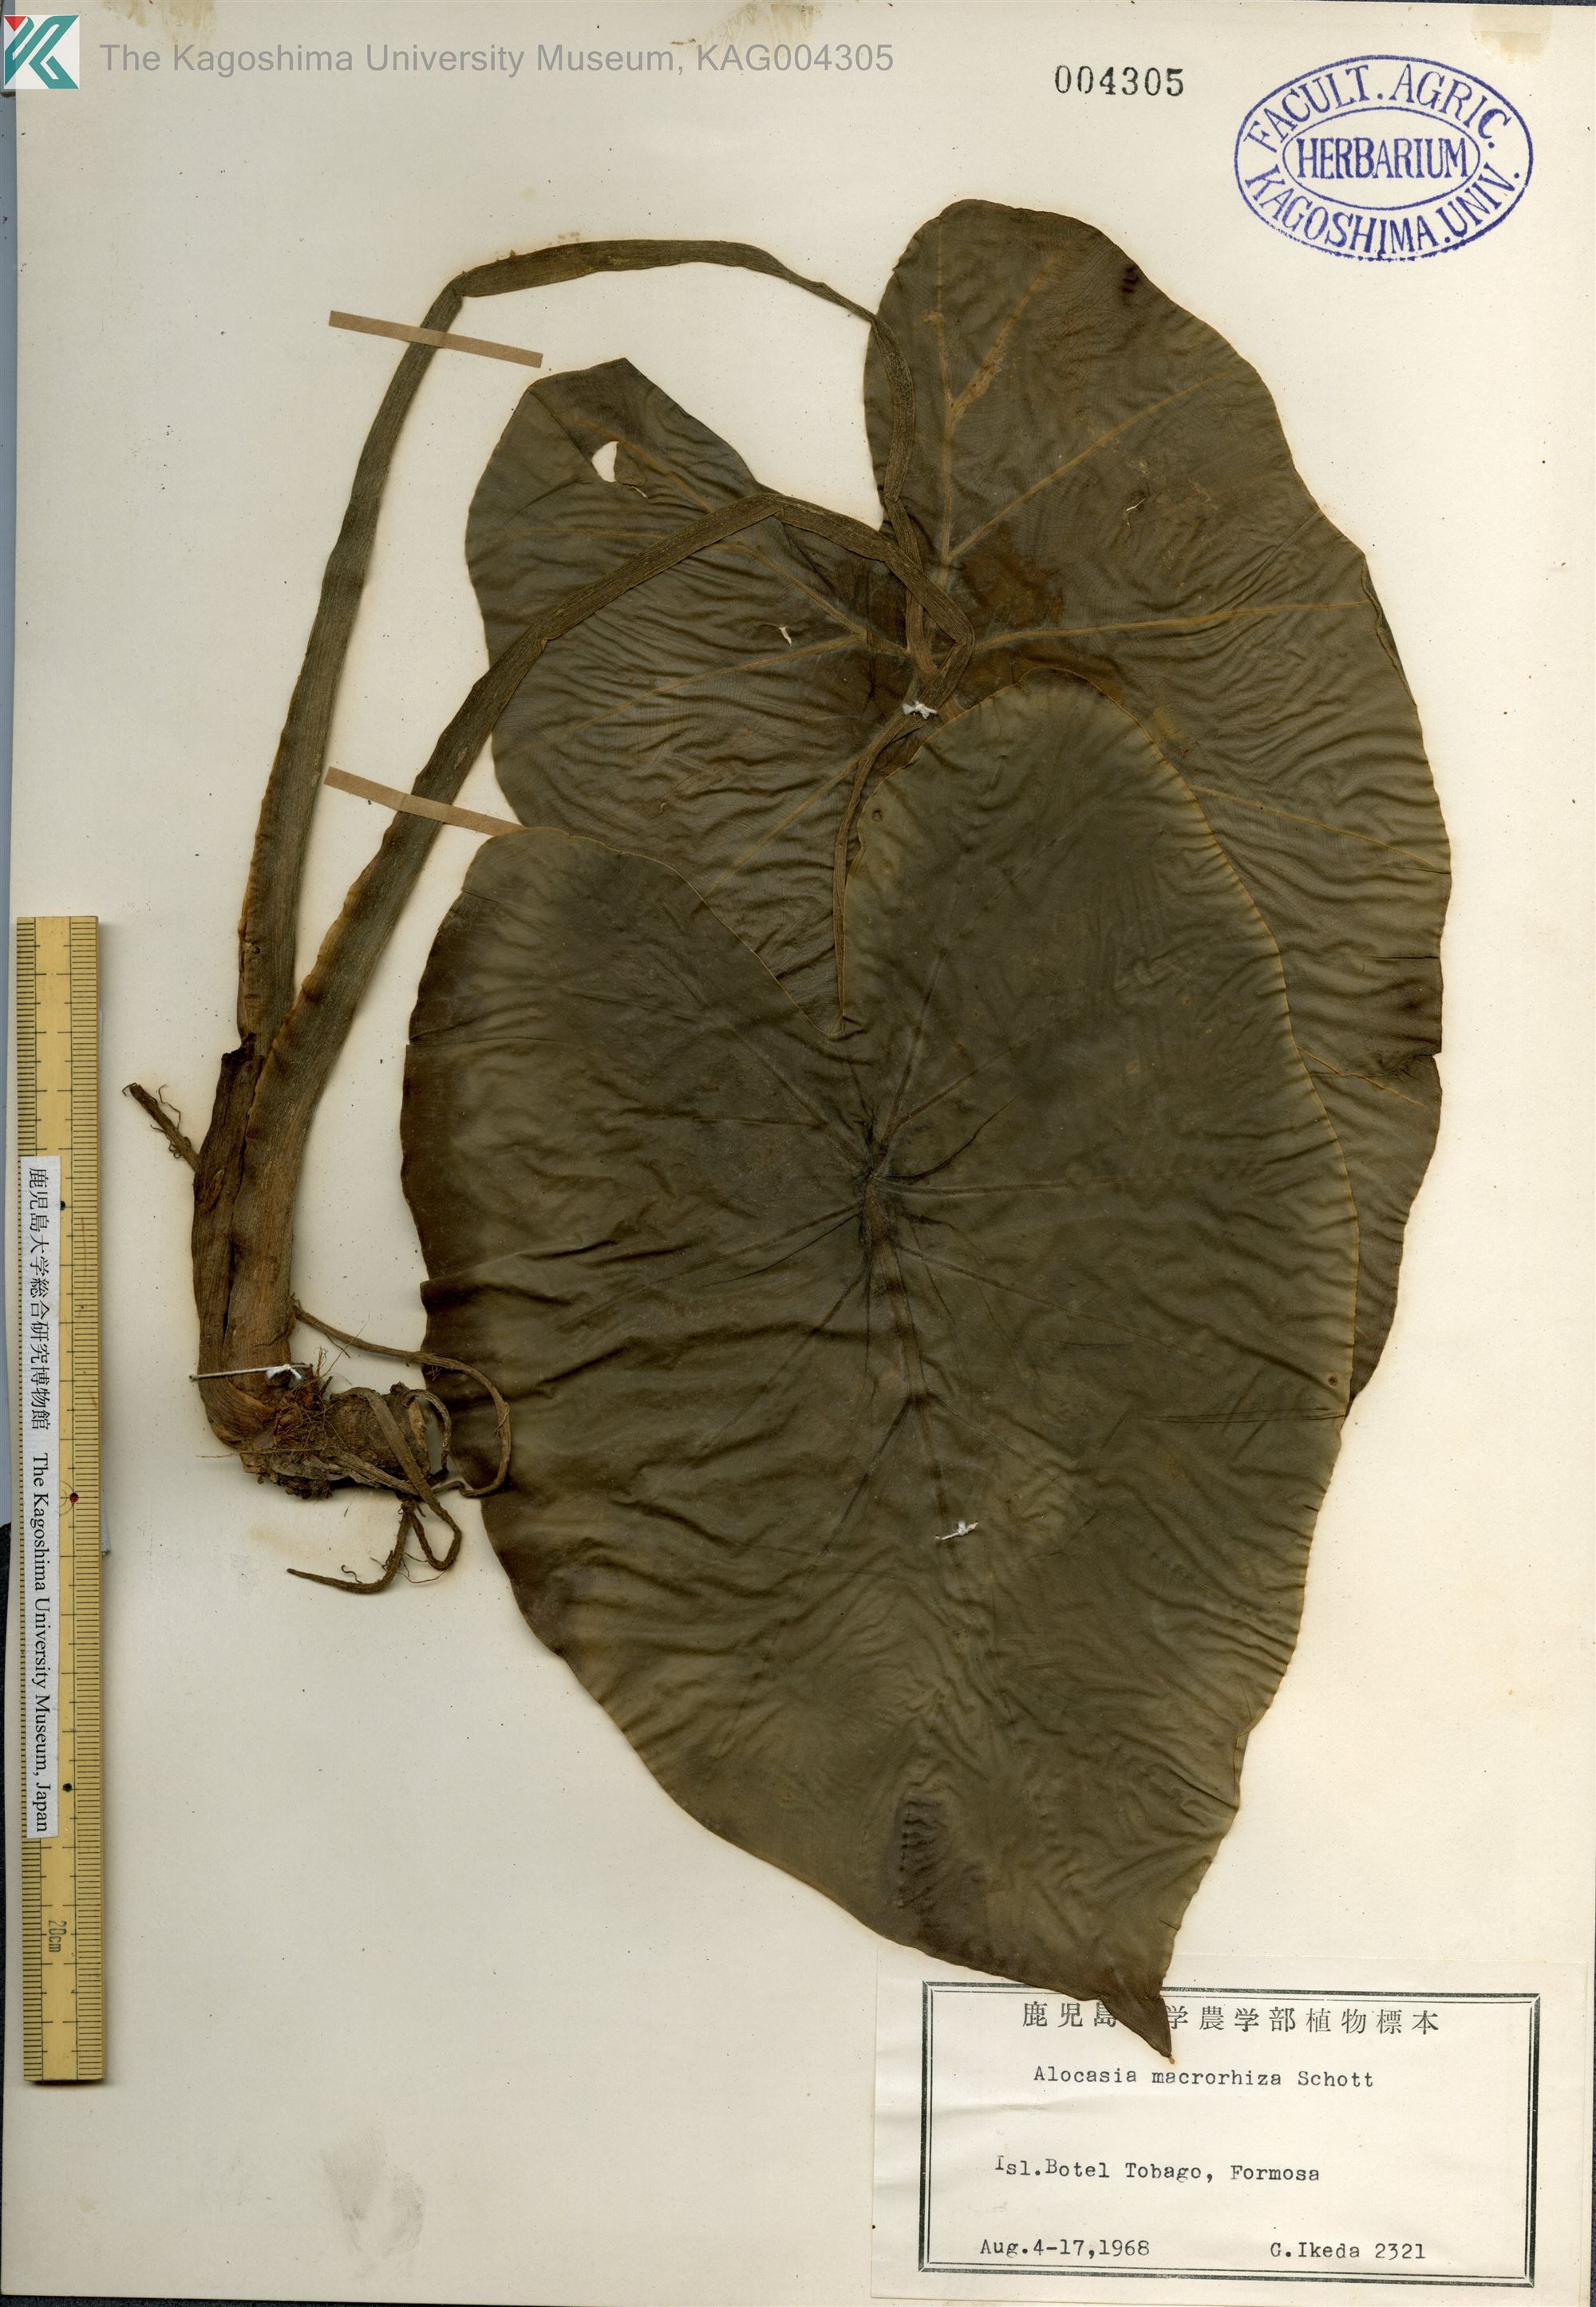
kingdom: Plantae
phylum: Tracheophyta
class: Liliopsida
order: Alismatales
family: Araceae
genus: Alocasia
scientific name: Alocasia odora
